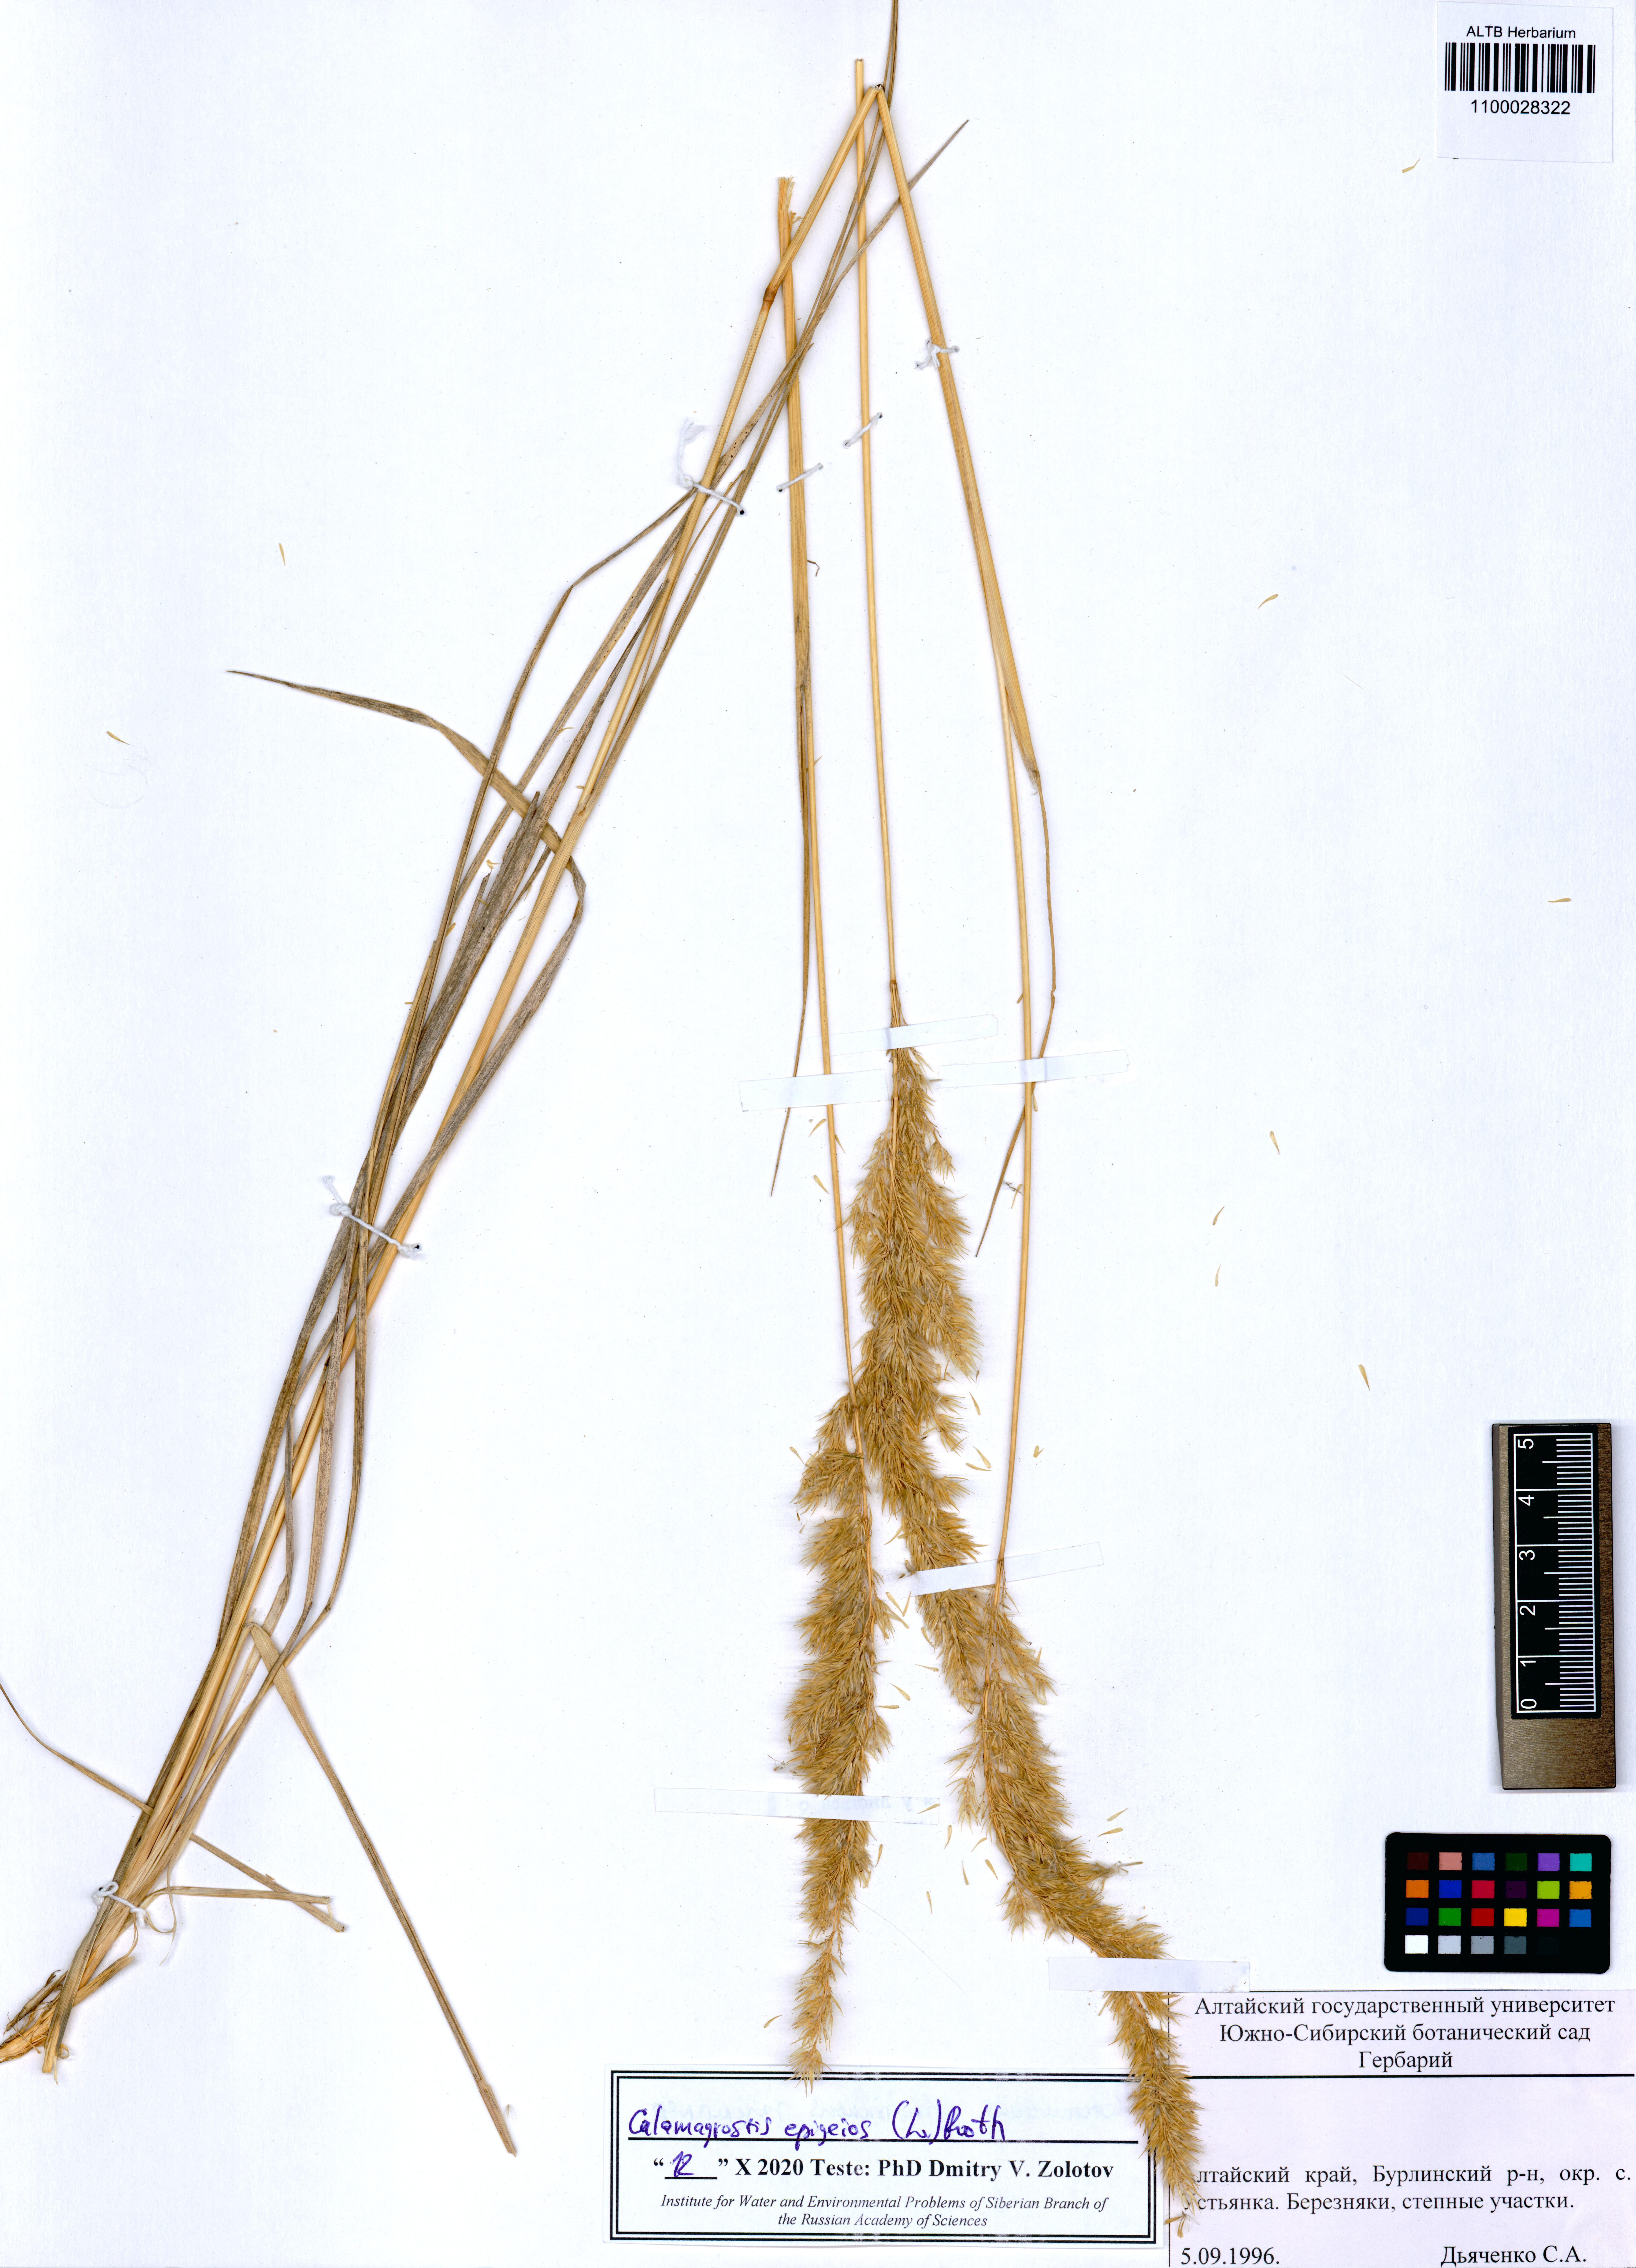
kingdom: Plantae
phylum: Tracheophyta
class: Liliopsida
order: Poales
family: Poaceae
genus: Calamagrostis
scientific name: Calamagrostis epigejos
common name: Wood small-reed
